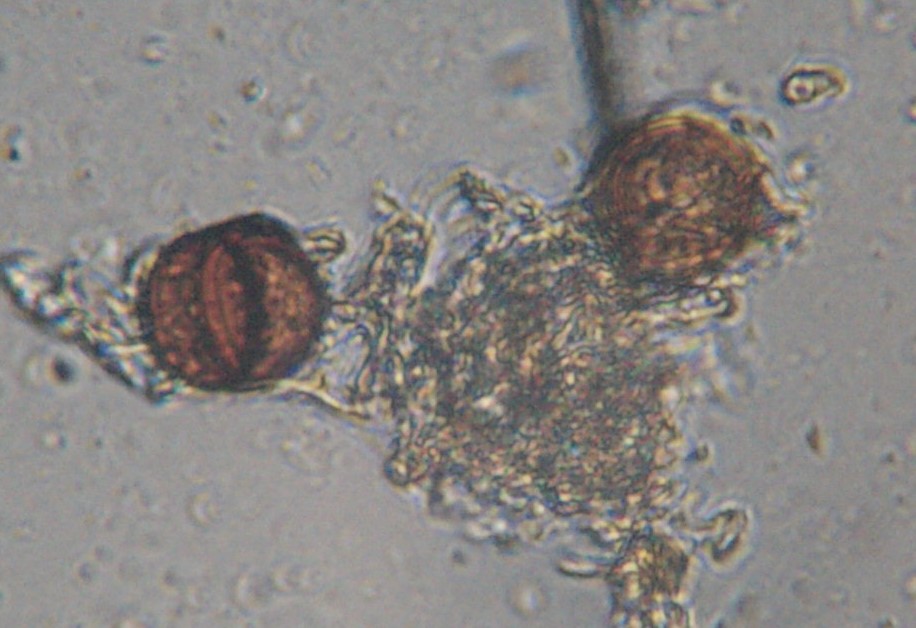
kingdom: Fungi
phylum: Basidiomycota
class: Pucciniomycetes
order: Pucciniales
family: Pucciniaceae
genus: Puccinia
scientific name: Puccinia violae
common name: viol-tvecellerust
